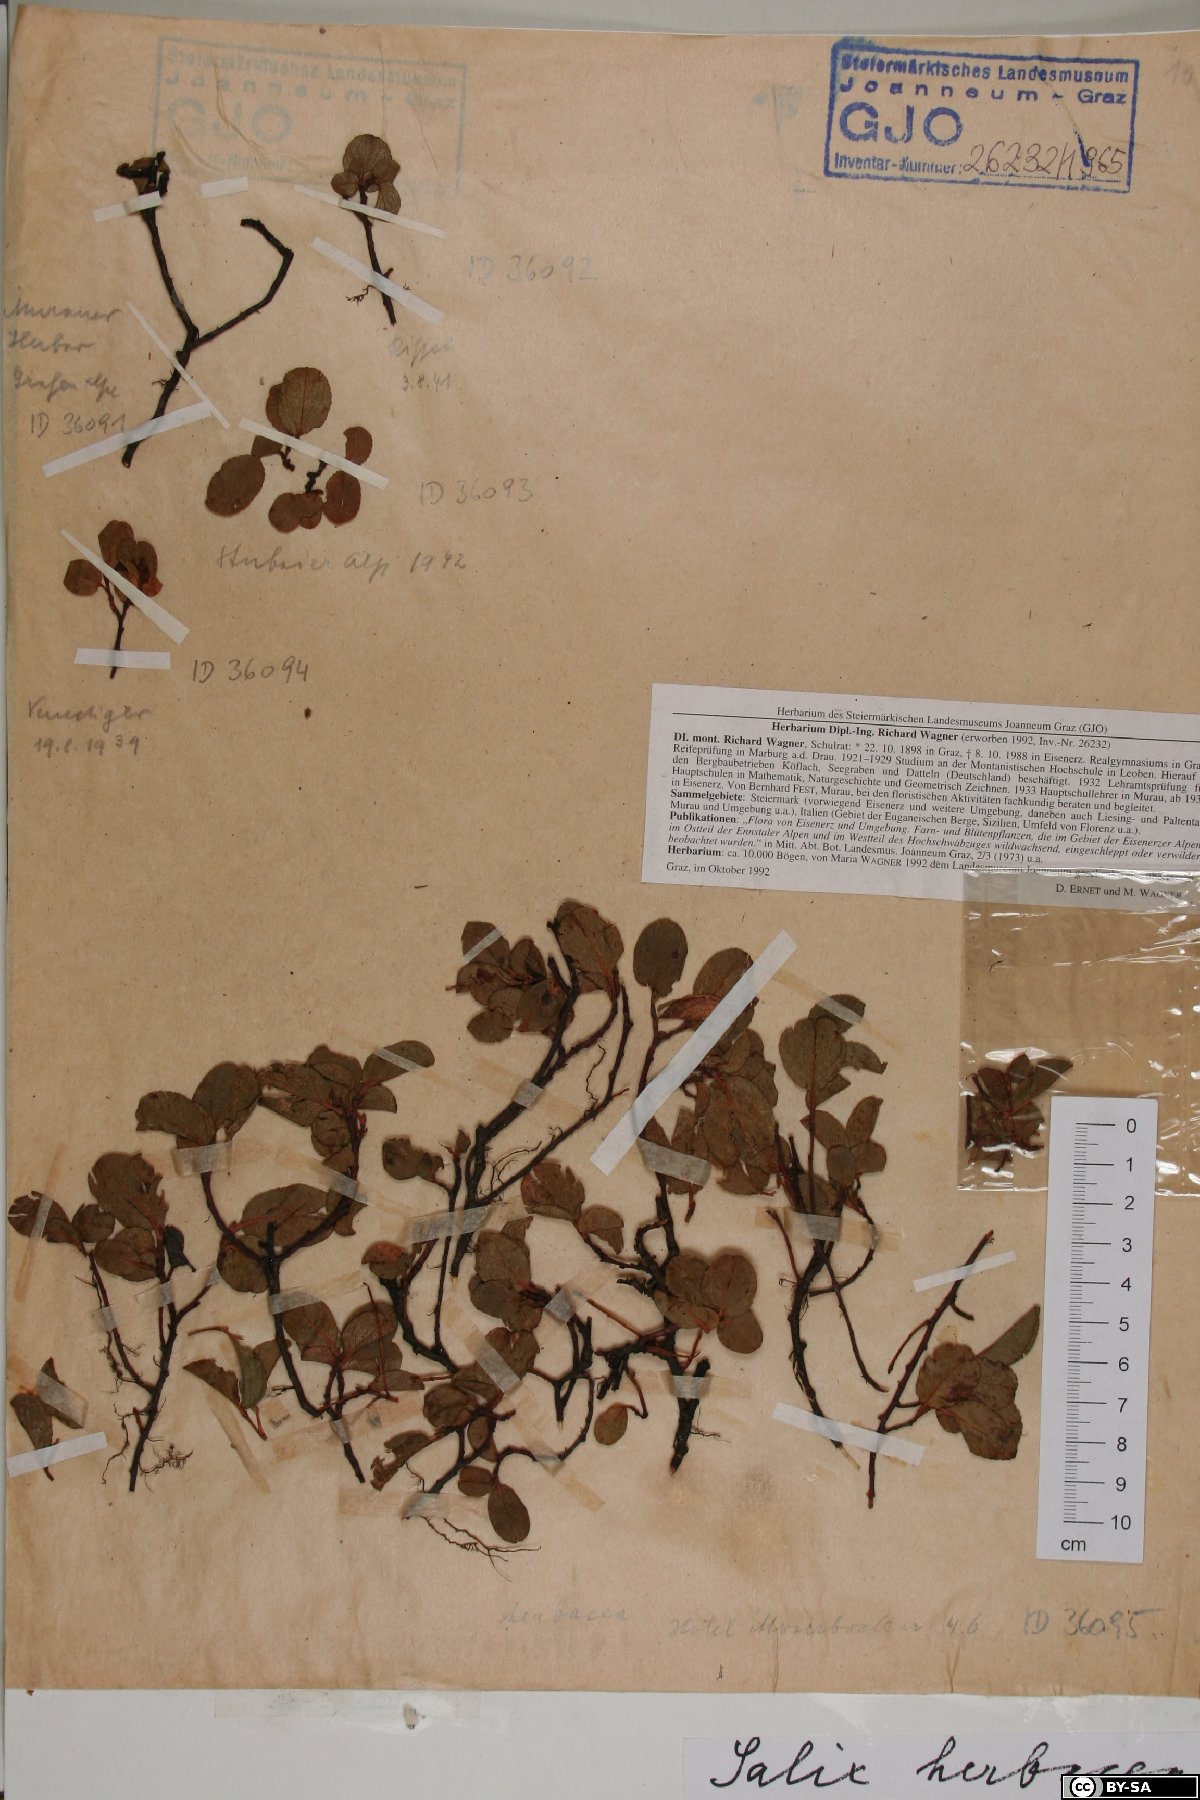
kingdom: Plantae
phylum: Tracheophyta
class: Magnoliopsida
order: Malpighiales
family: Salicaceae
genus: Salix
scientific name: Salix herbacea
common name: Dwarf willow
